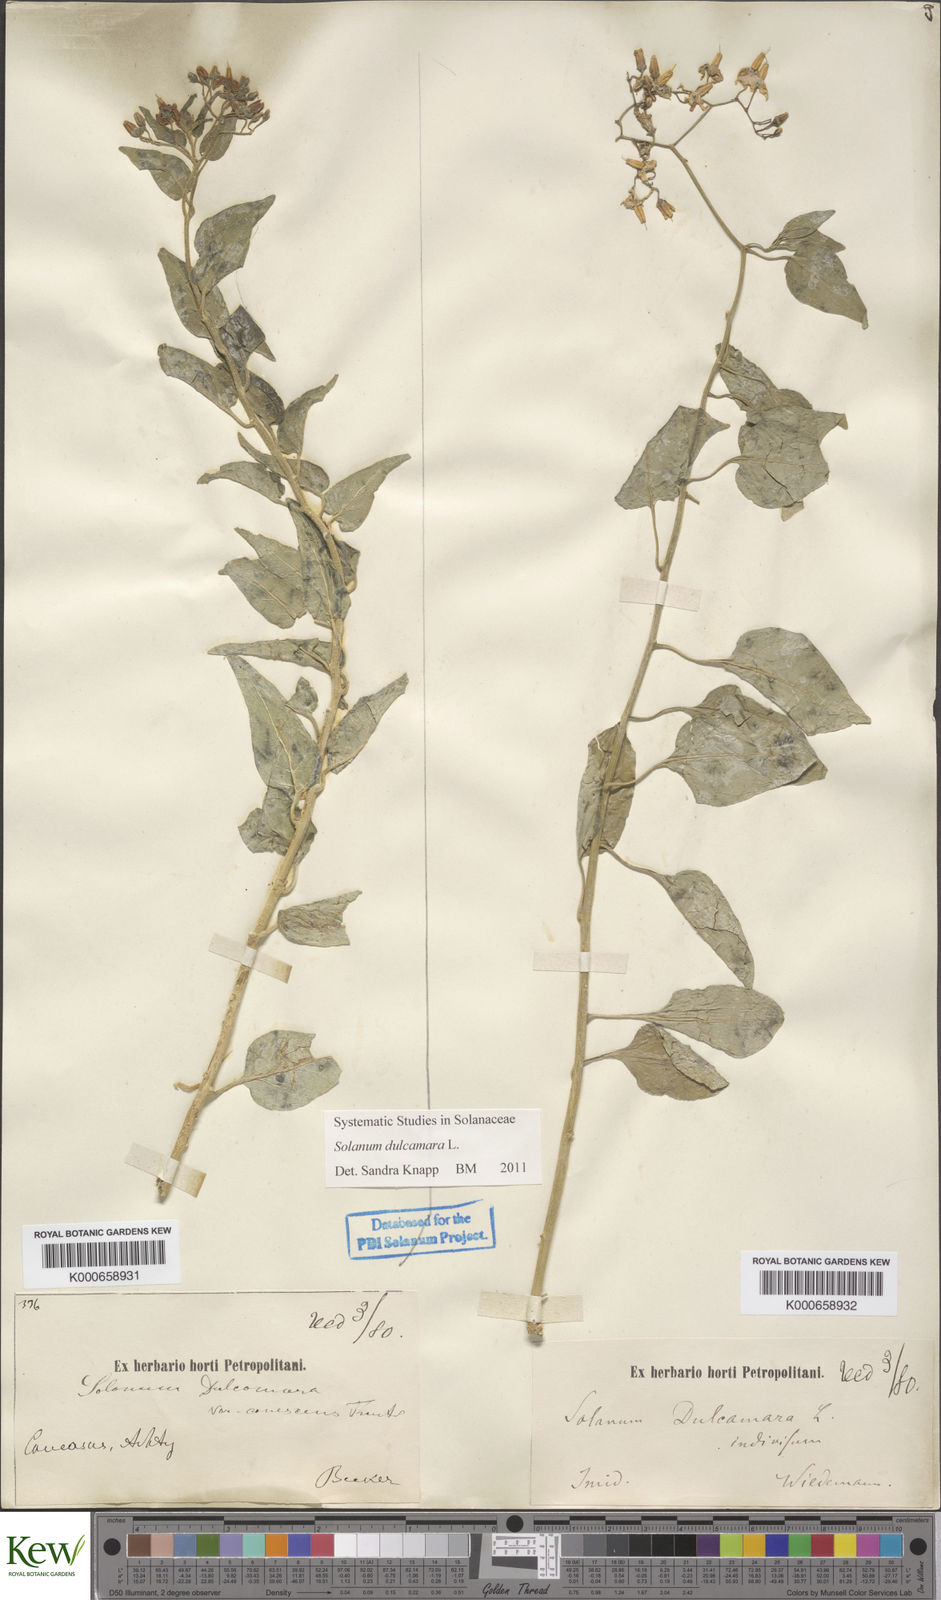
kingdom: Plantae
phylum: Tracheophyta
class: Magnoliopsida
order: Solanales
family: Solanaceae
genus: Solanum
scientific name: Solanum dulcamara
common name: Climbing nightshade
